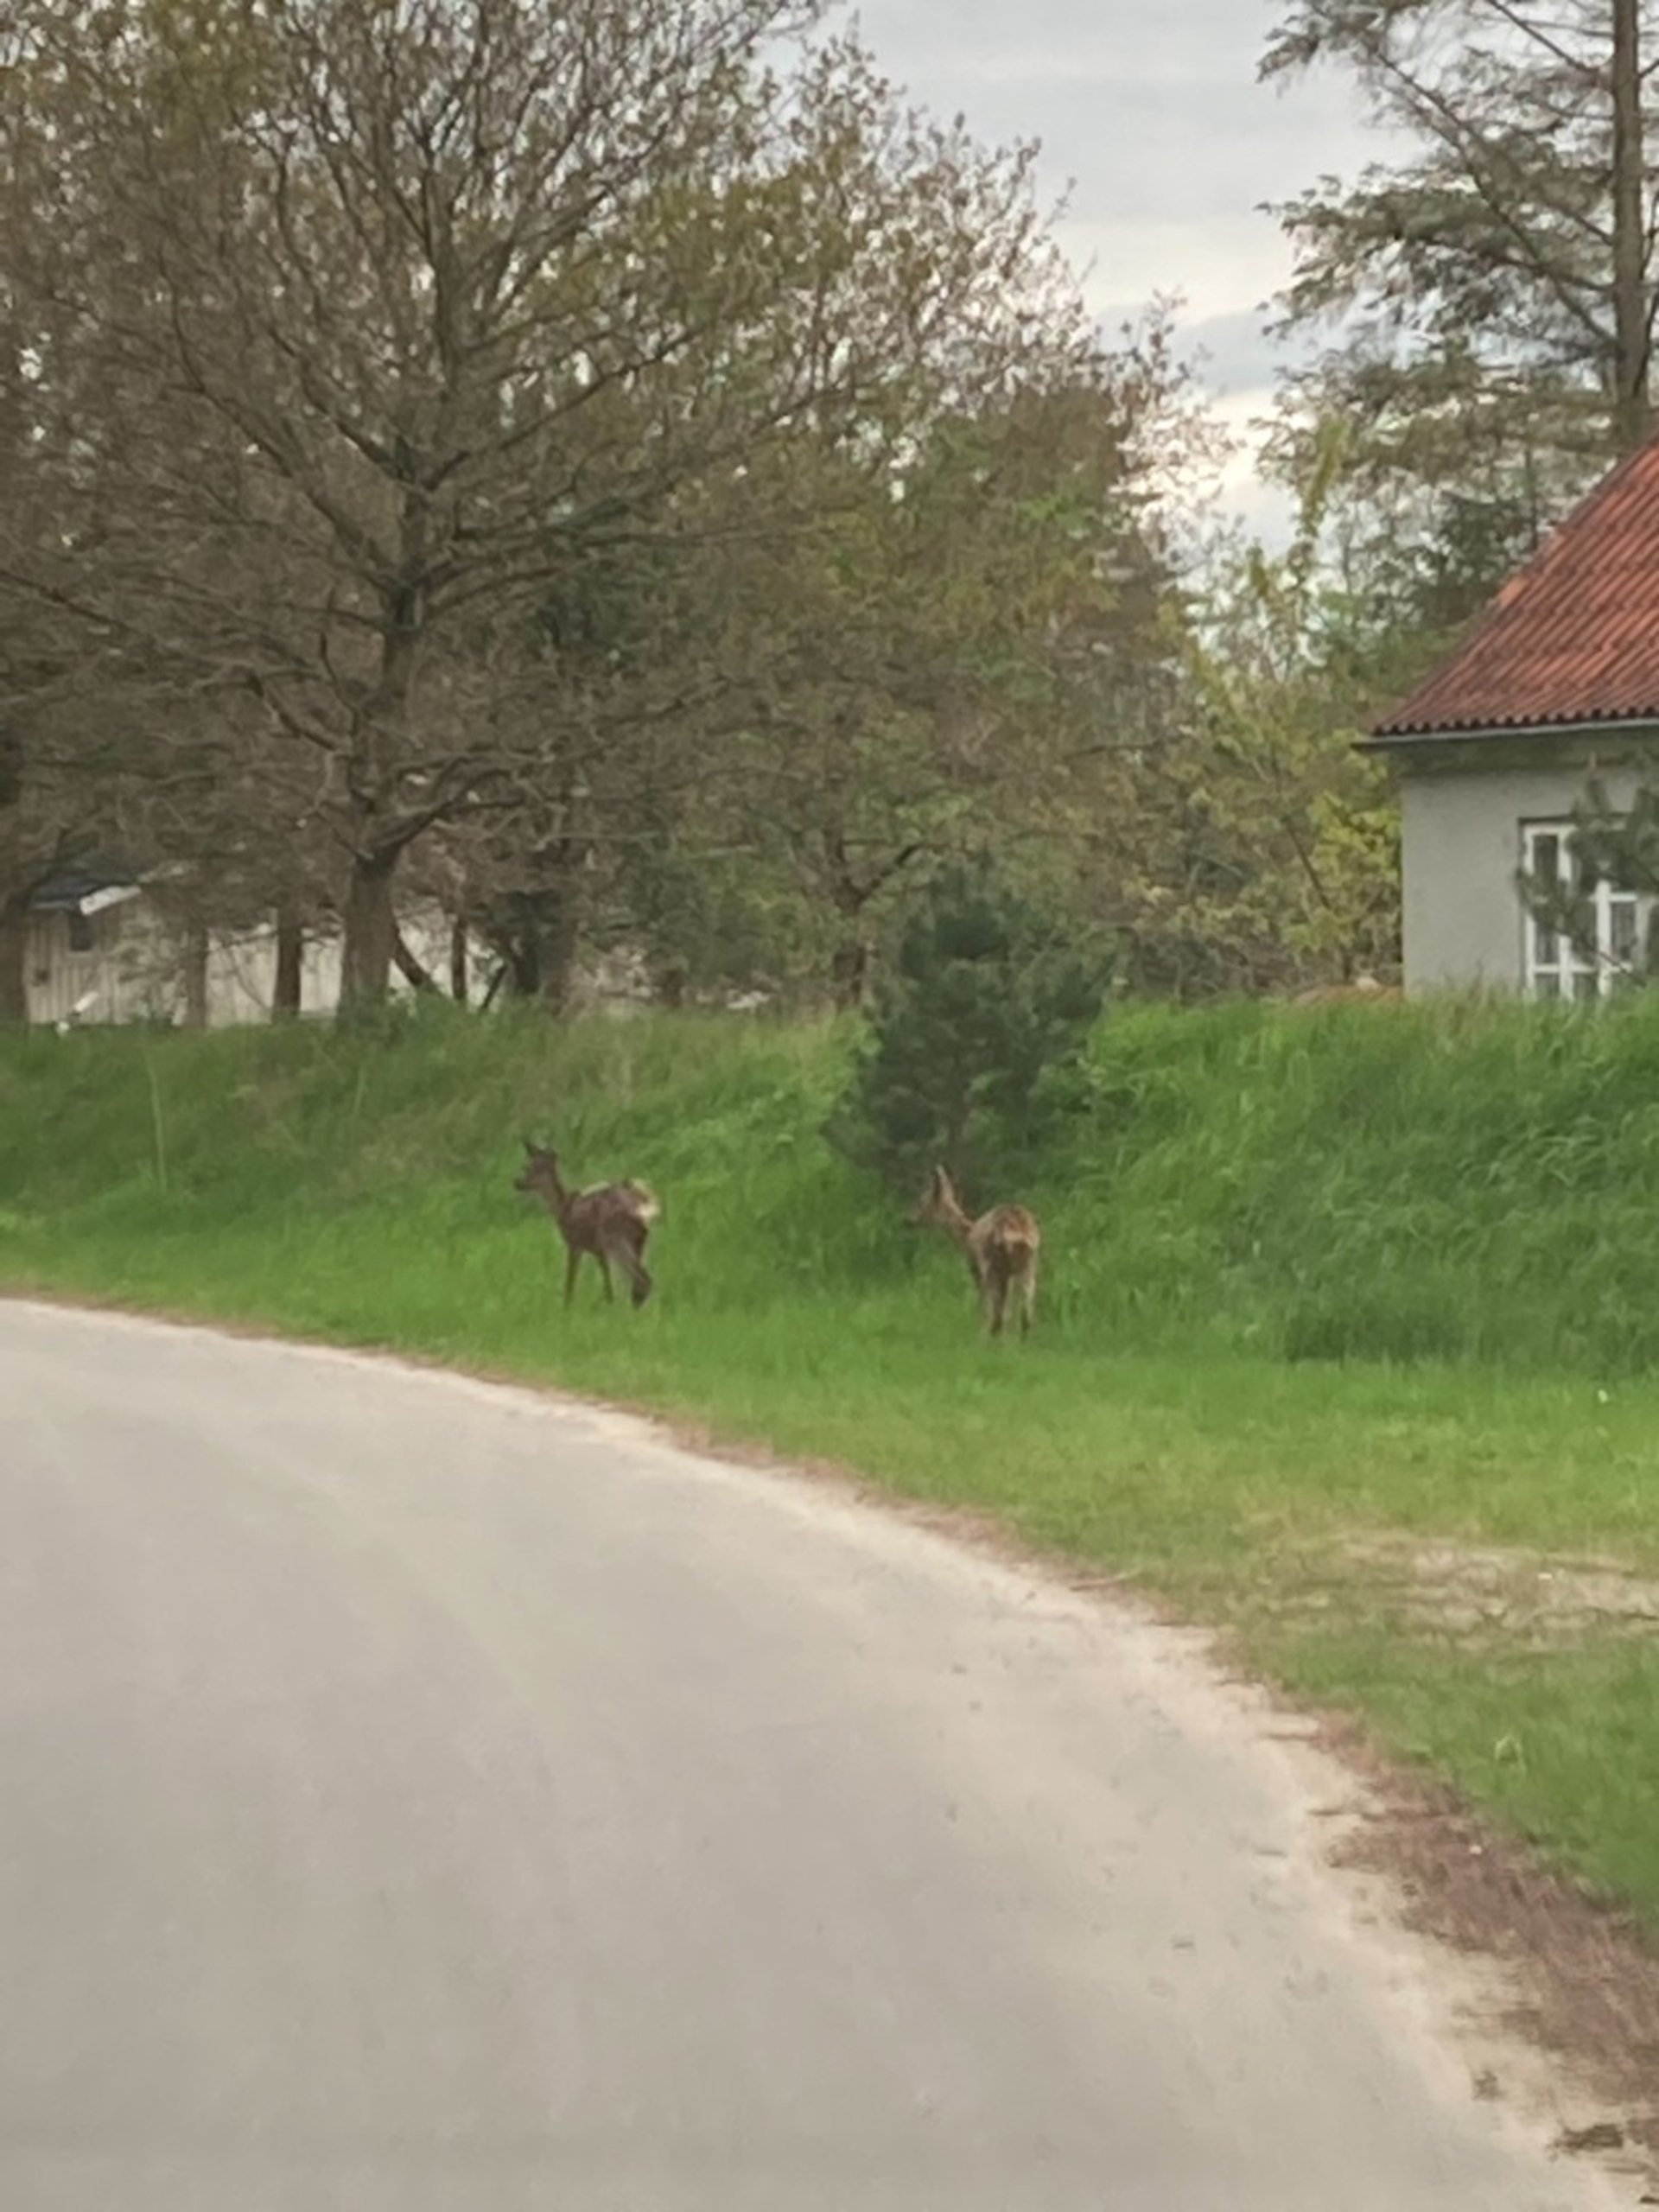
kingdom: Animalia
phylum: Chordata
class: Mammalia
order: Artiodactyla
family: Cervidae
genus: Capreolus
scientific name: Capreolus capreolus
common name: Rådyr
